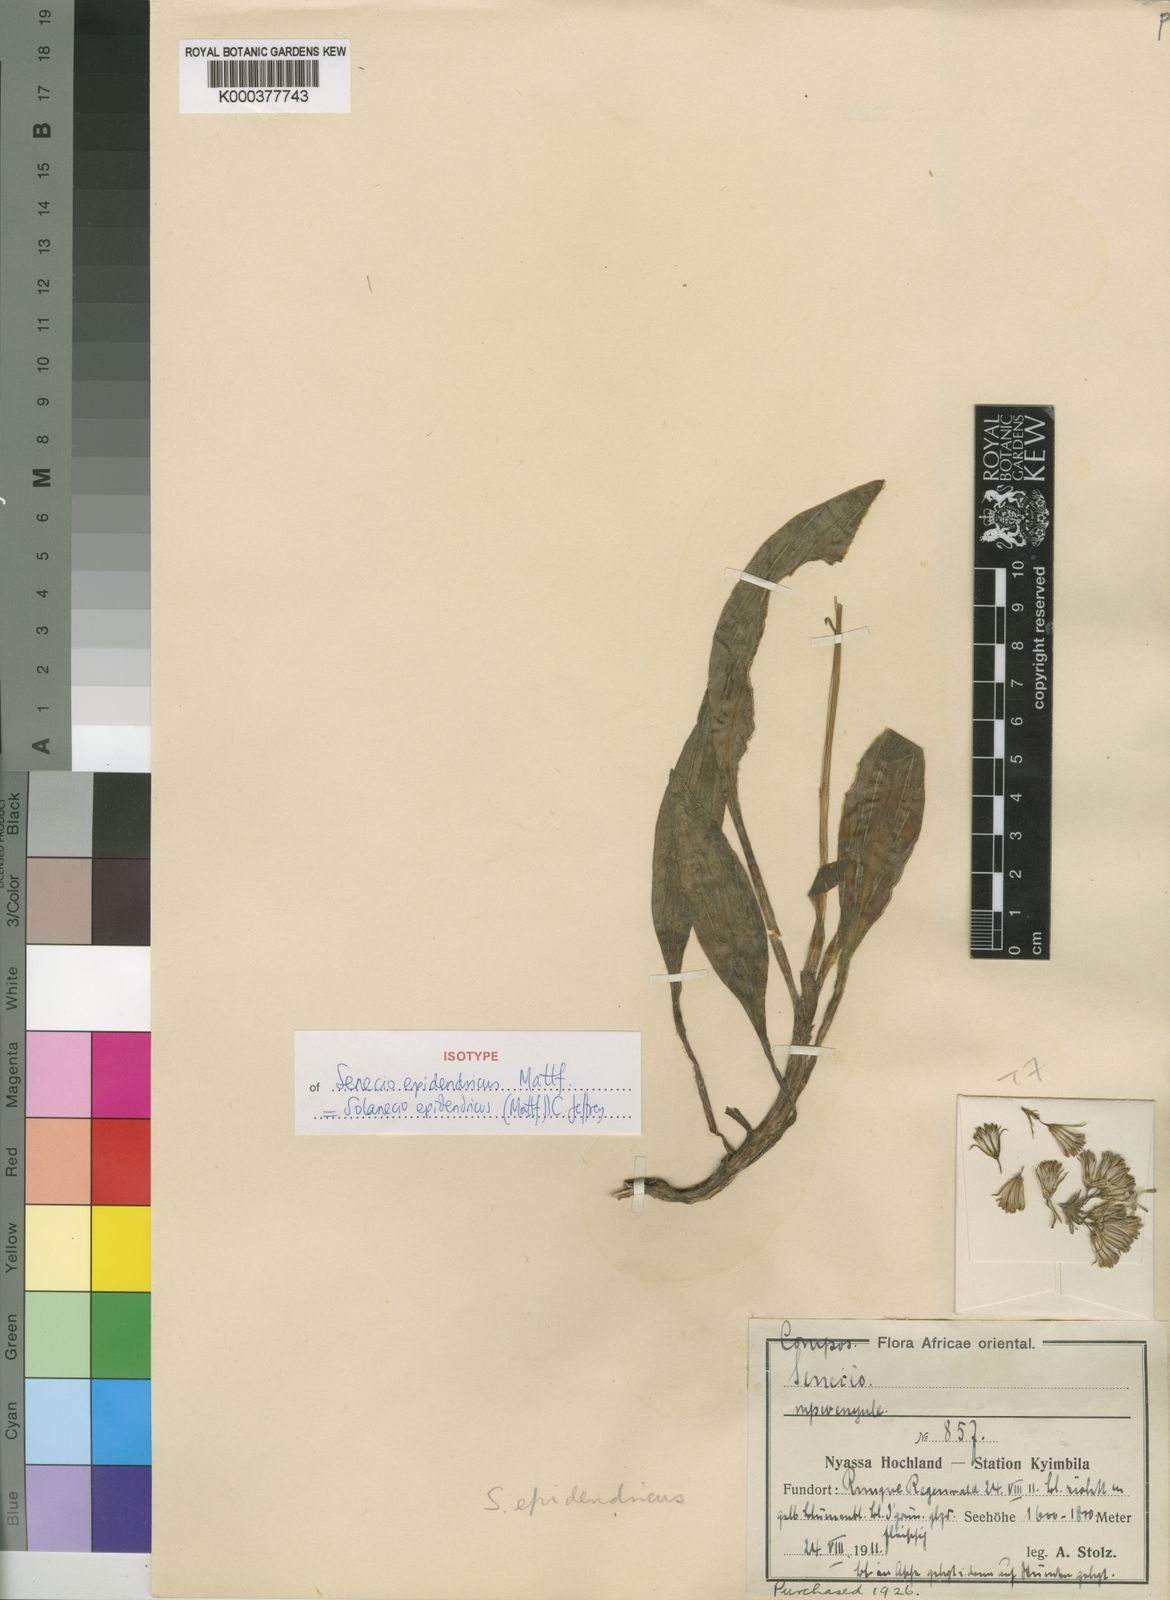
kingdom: Plantae
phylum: Tracheophyta
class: Magnoliopsida
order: Asterales
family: Asteraceae
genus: Solanecio
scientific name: Solanecio epidendricus
